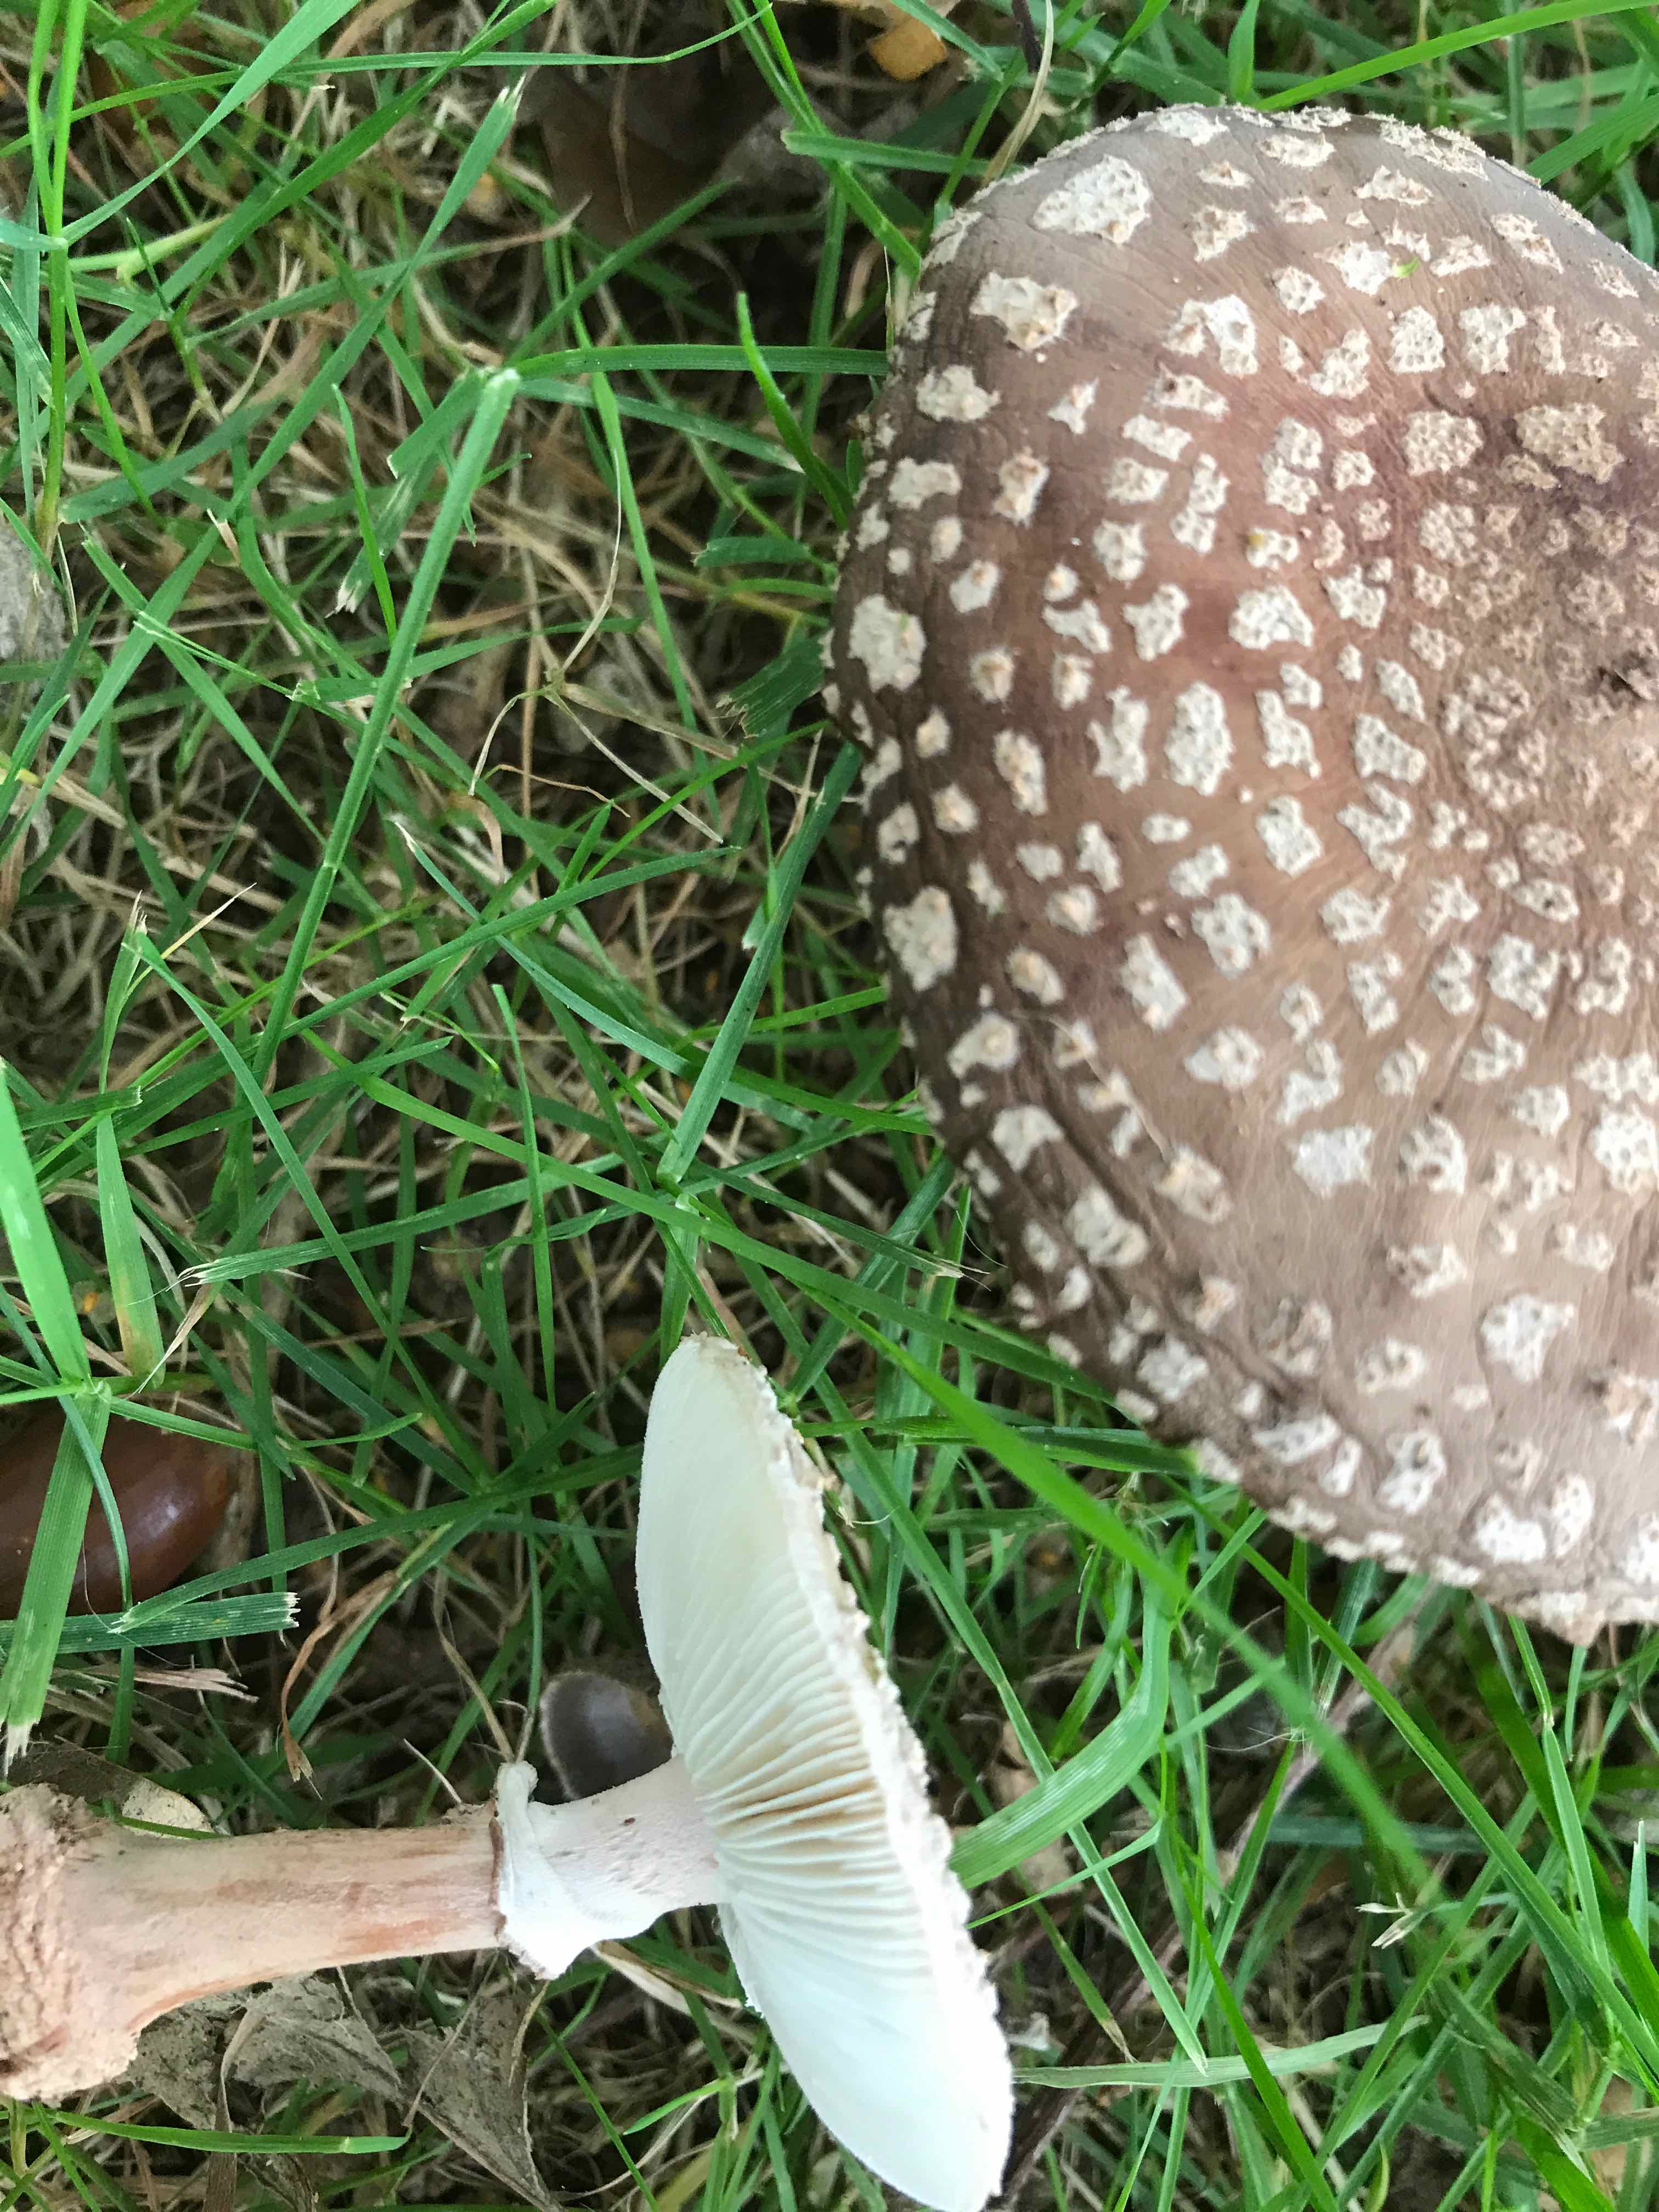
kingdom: Fungi
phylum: Basidiomycota
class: Agaricomycetes
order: Agaricales
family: Amanitaceae
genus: Amanita
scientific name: Amanita rubescens
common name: rødmende fluesvamp
